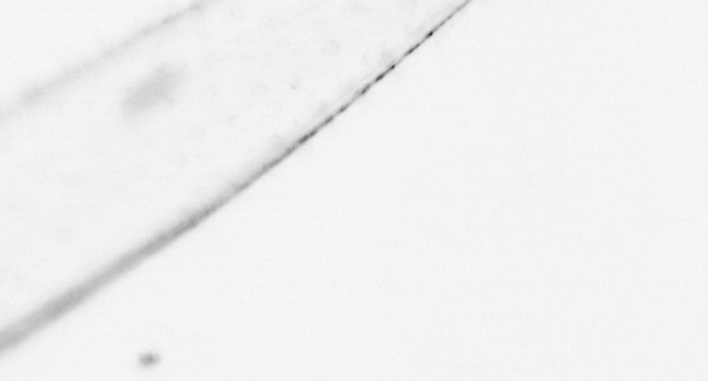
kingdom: Animalia
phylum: Chaetognatha
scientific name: Chaetognatha
